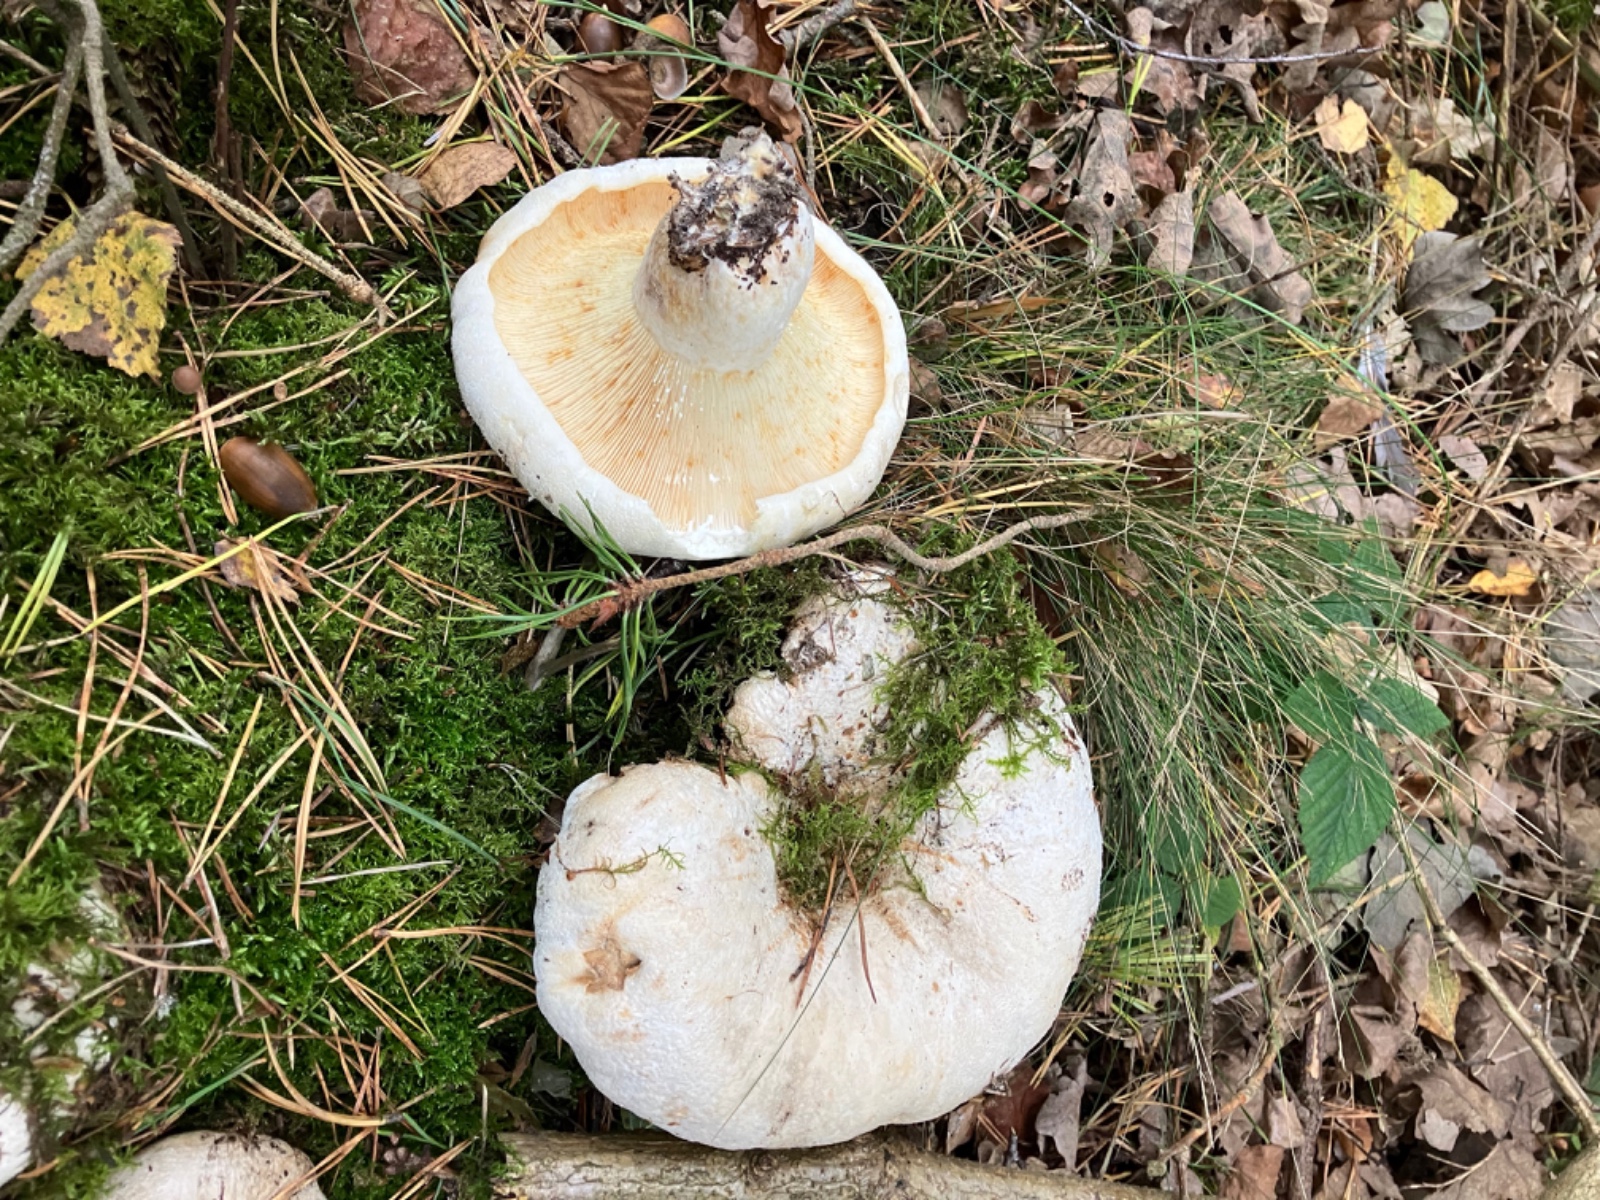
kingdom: Fungi
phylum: Basidiomycota
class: Agaricomycetes
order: Russulales
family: Russulaceae
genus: Lactifluus
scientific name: Lactifluus vellereus
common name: hvidfiltet mælkehat
